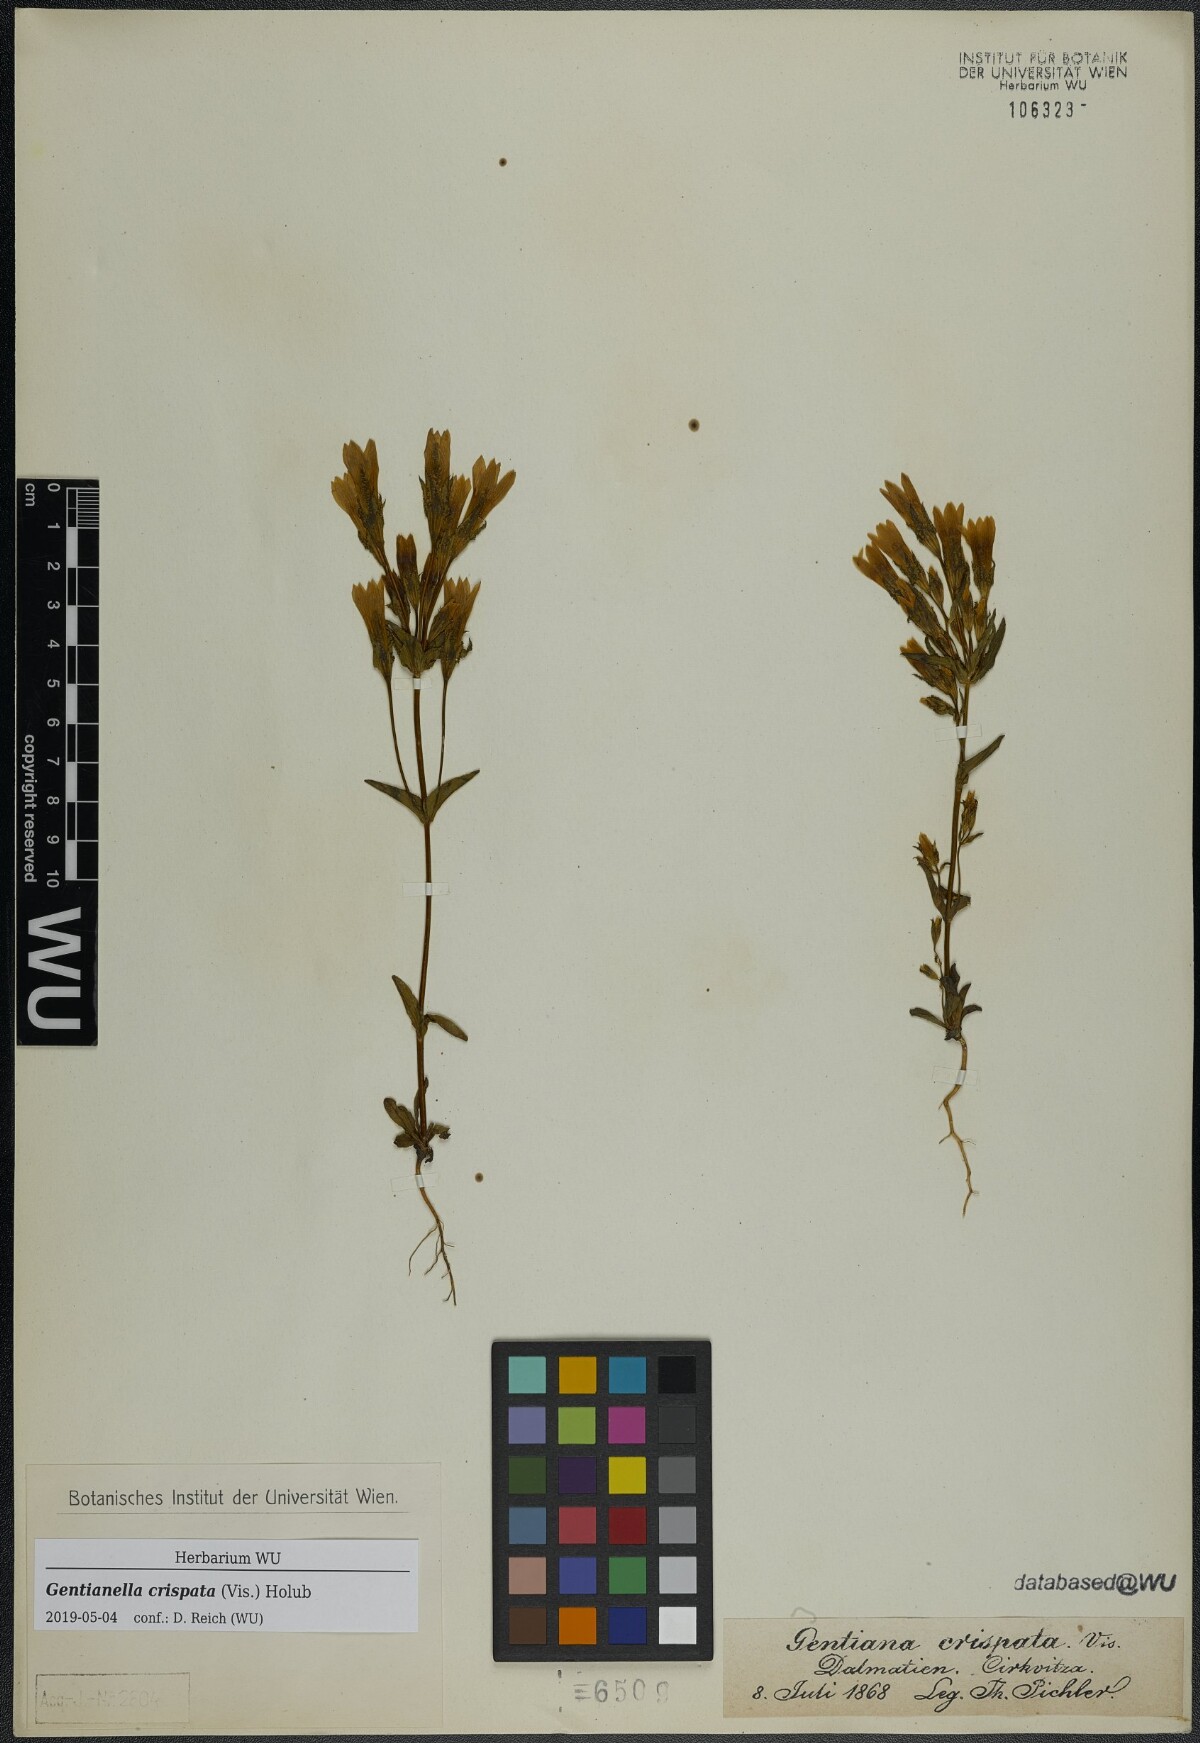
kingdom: Plantae
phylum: Tracheophyta
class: Magnoliopsida
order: Gentianales
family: Gentianaceae
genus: Gentianella
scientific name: Gentianella crispata
